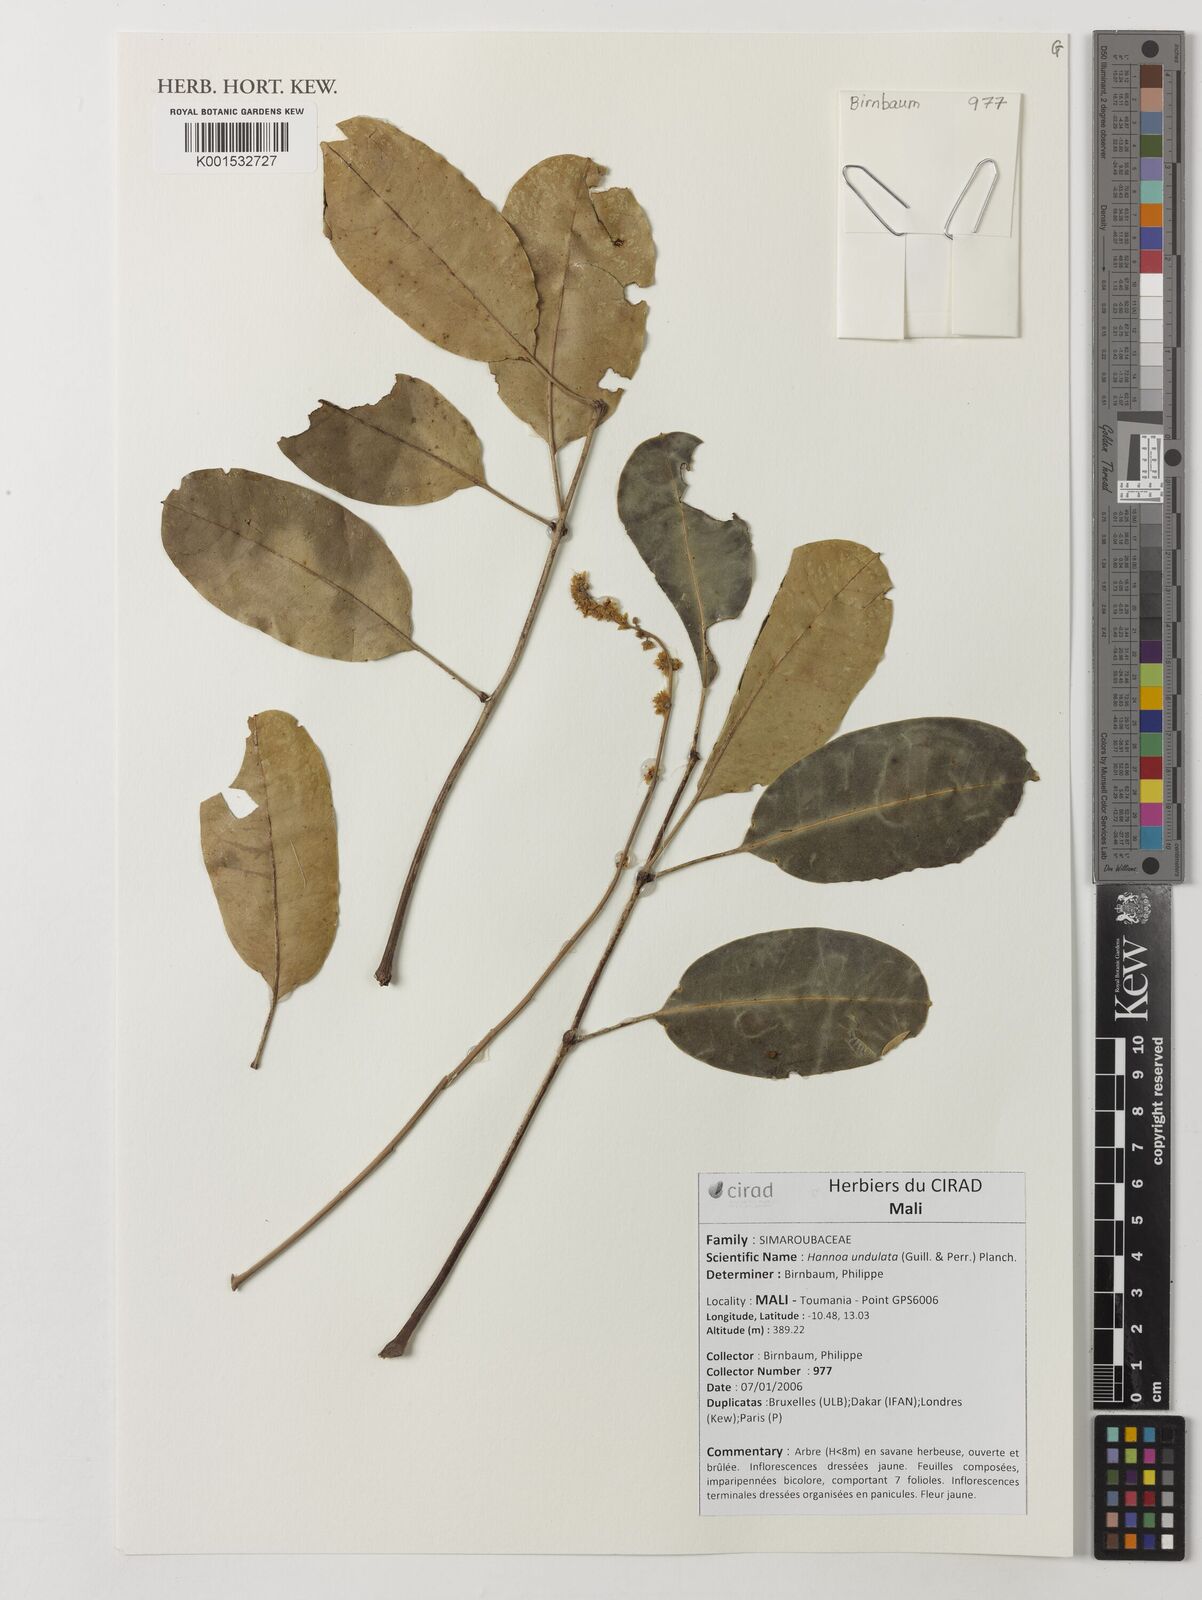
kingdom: Plantae
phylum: Tracheophyta
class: Magnoliopsida
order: Sapindales
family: Simaroubaceae
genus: Odyendyea
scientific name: Odyendyea klaineana
